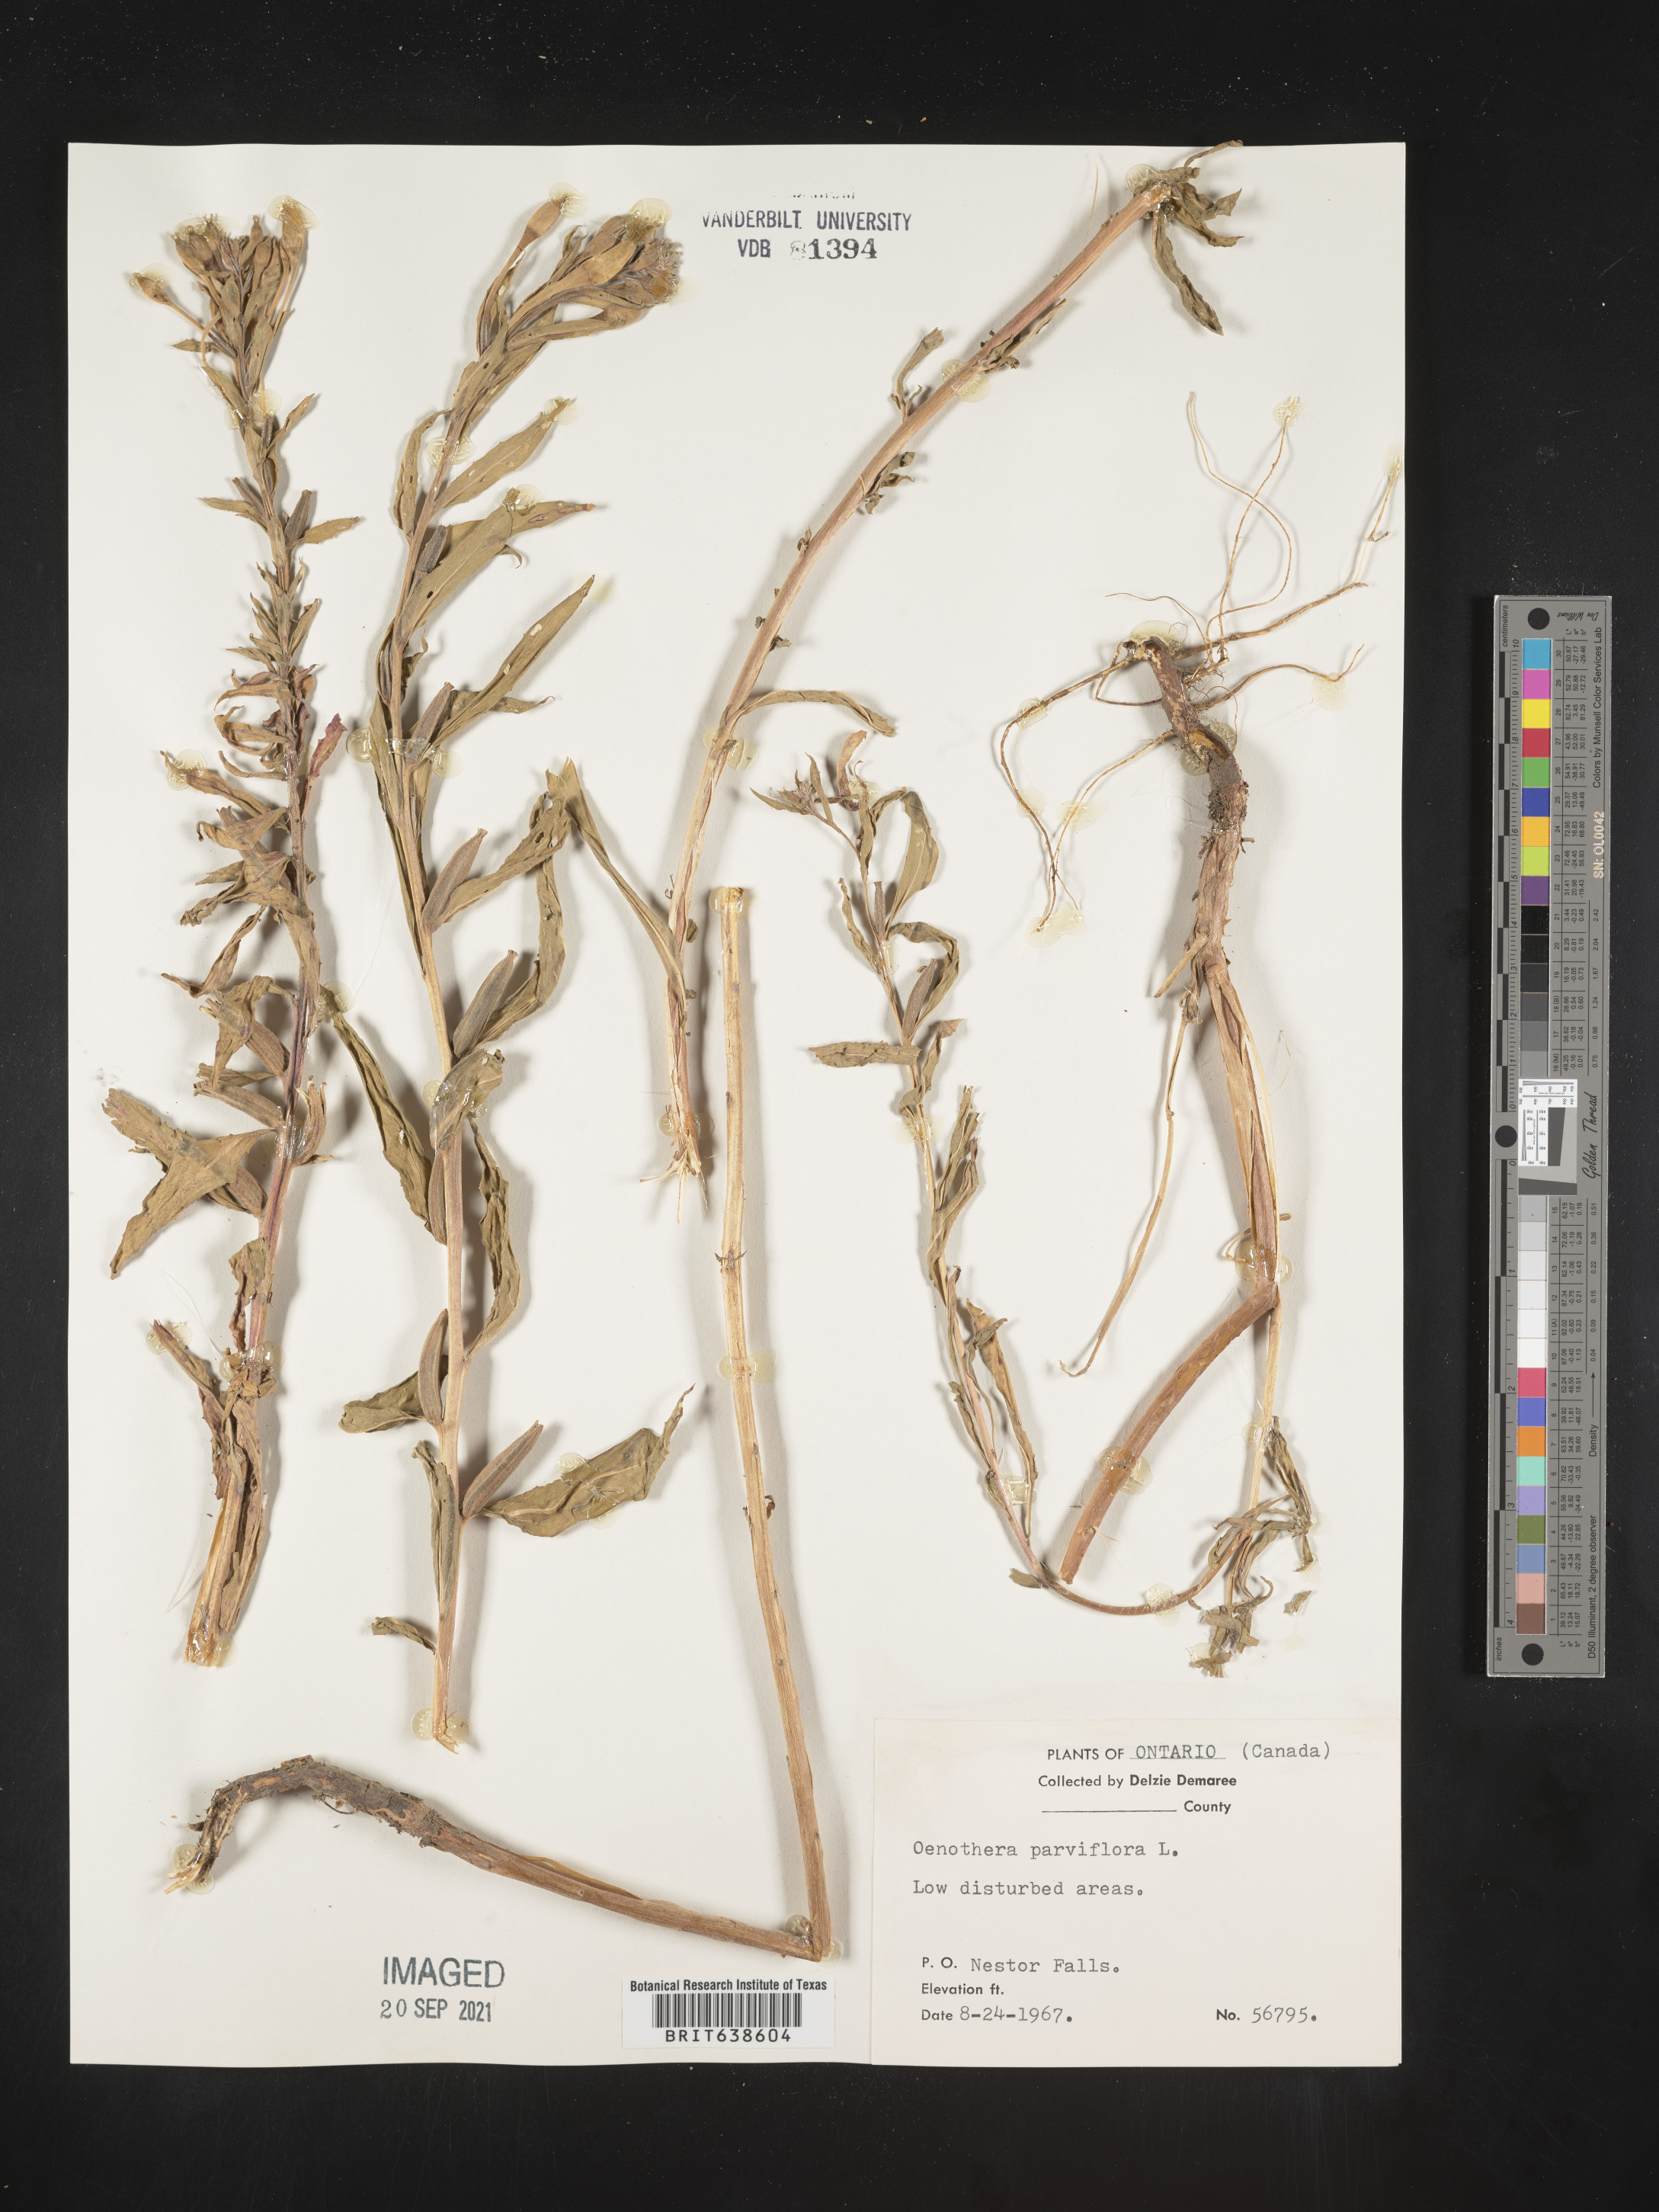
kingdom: Plantae
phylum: Tracheophyta
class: Magnoliopsida
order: Myrtales
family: Onagraceae
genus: Oenothera
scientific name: Oenothera
